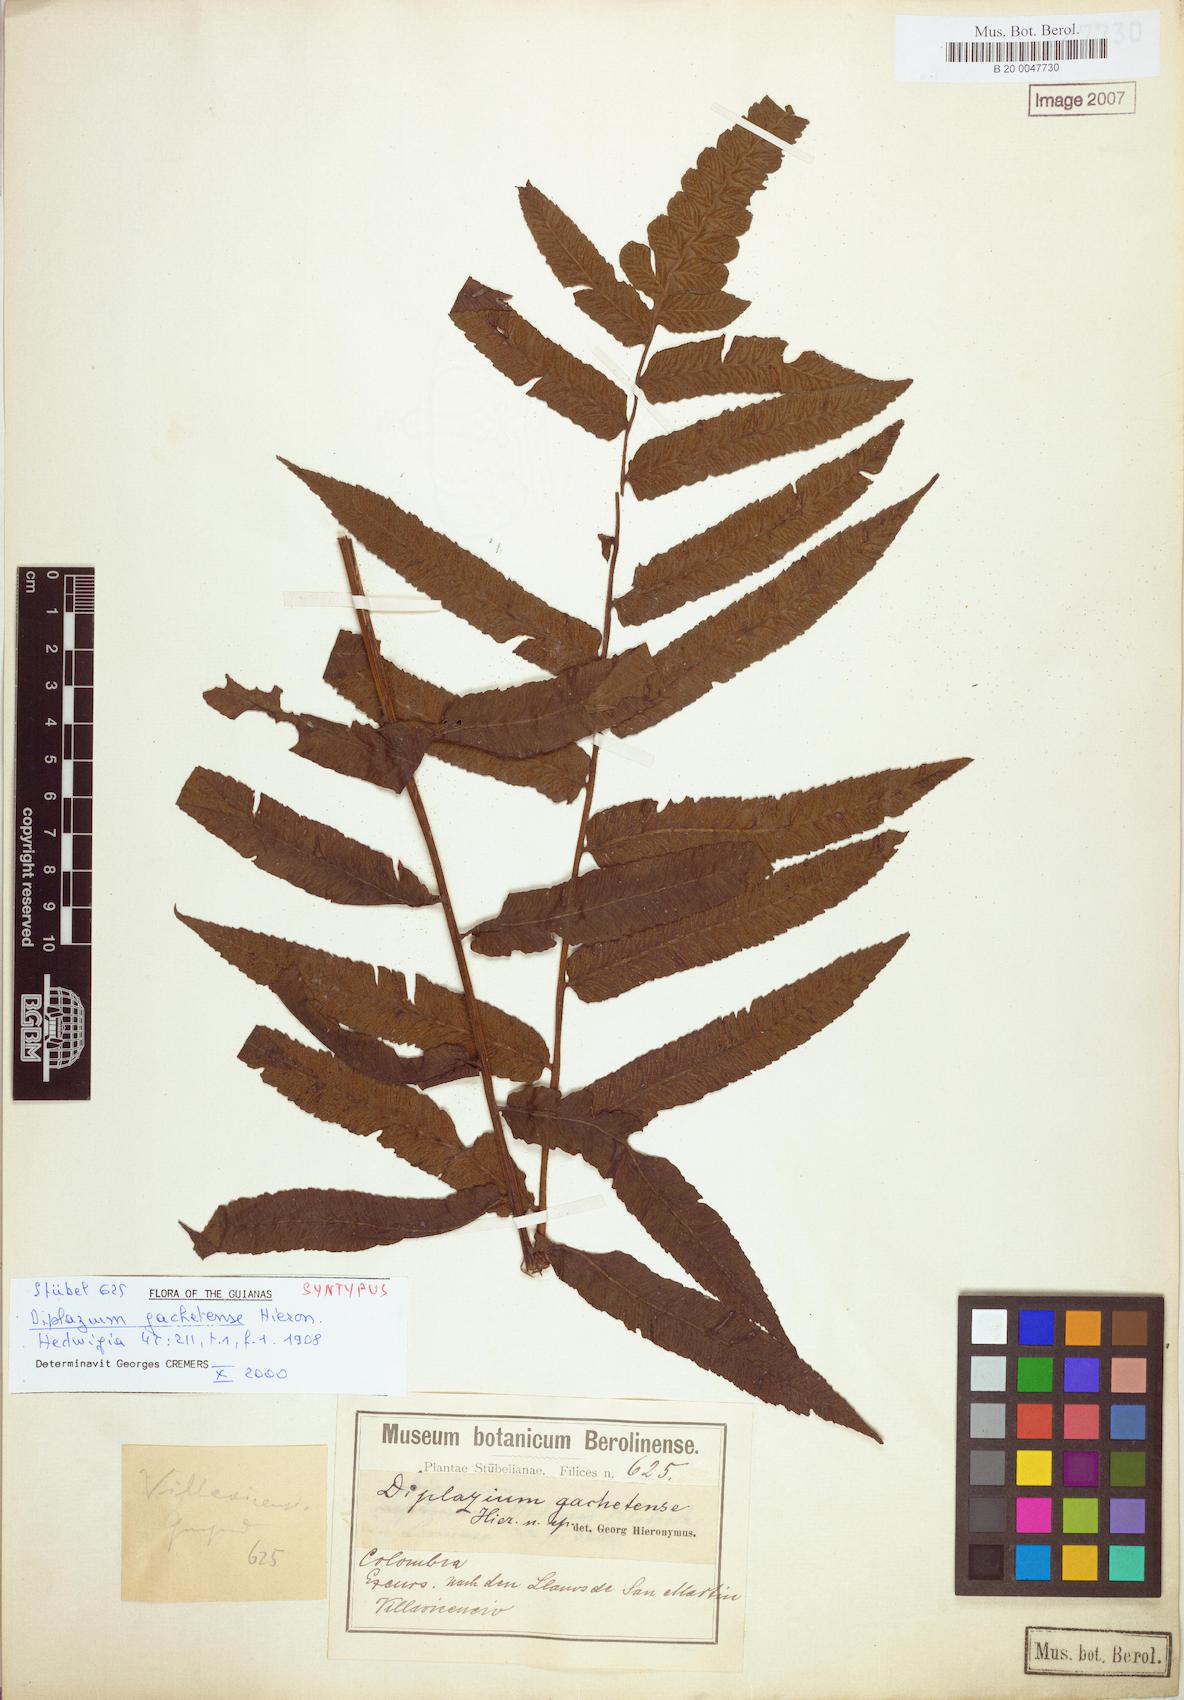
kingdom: Plantae
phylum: Tracheophyta
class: Polypodiopsida
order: Polypodiales
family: Athyriaceae
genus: Diplazium
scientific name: Diplazium gachetense
